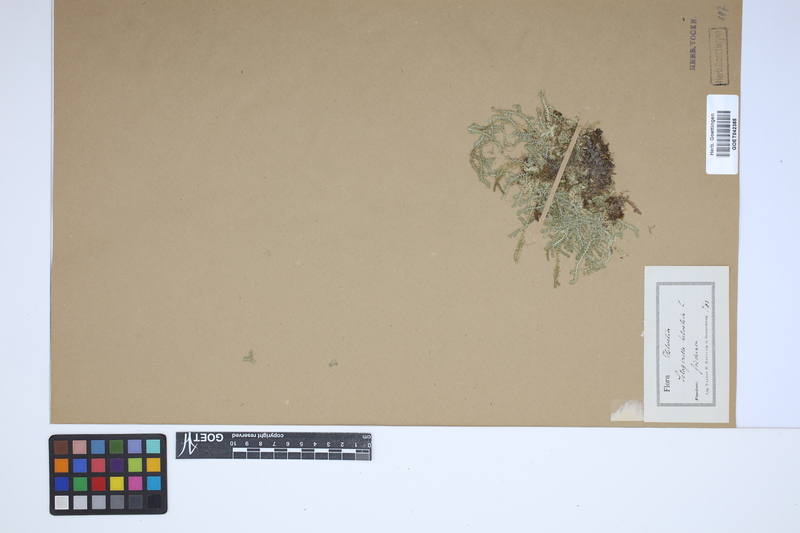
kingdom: Plantae
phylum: Tracheophyta
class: Lycopodiopsida
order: Selaginellales
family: Selaginellaceae
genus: Selaginella
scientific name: Selaginella helvetica
